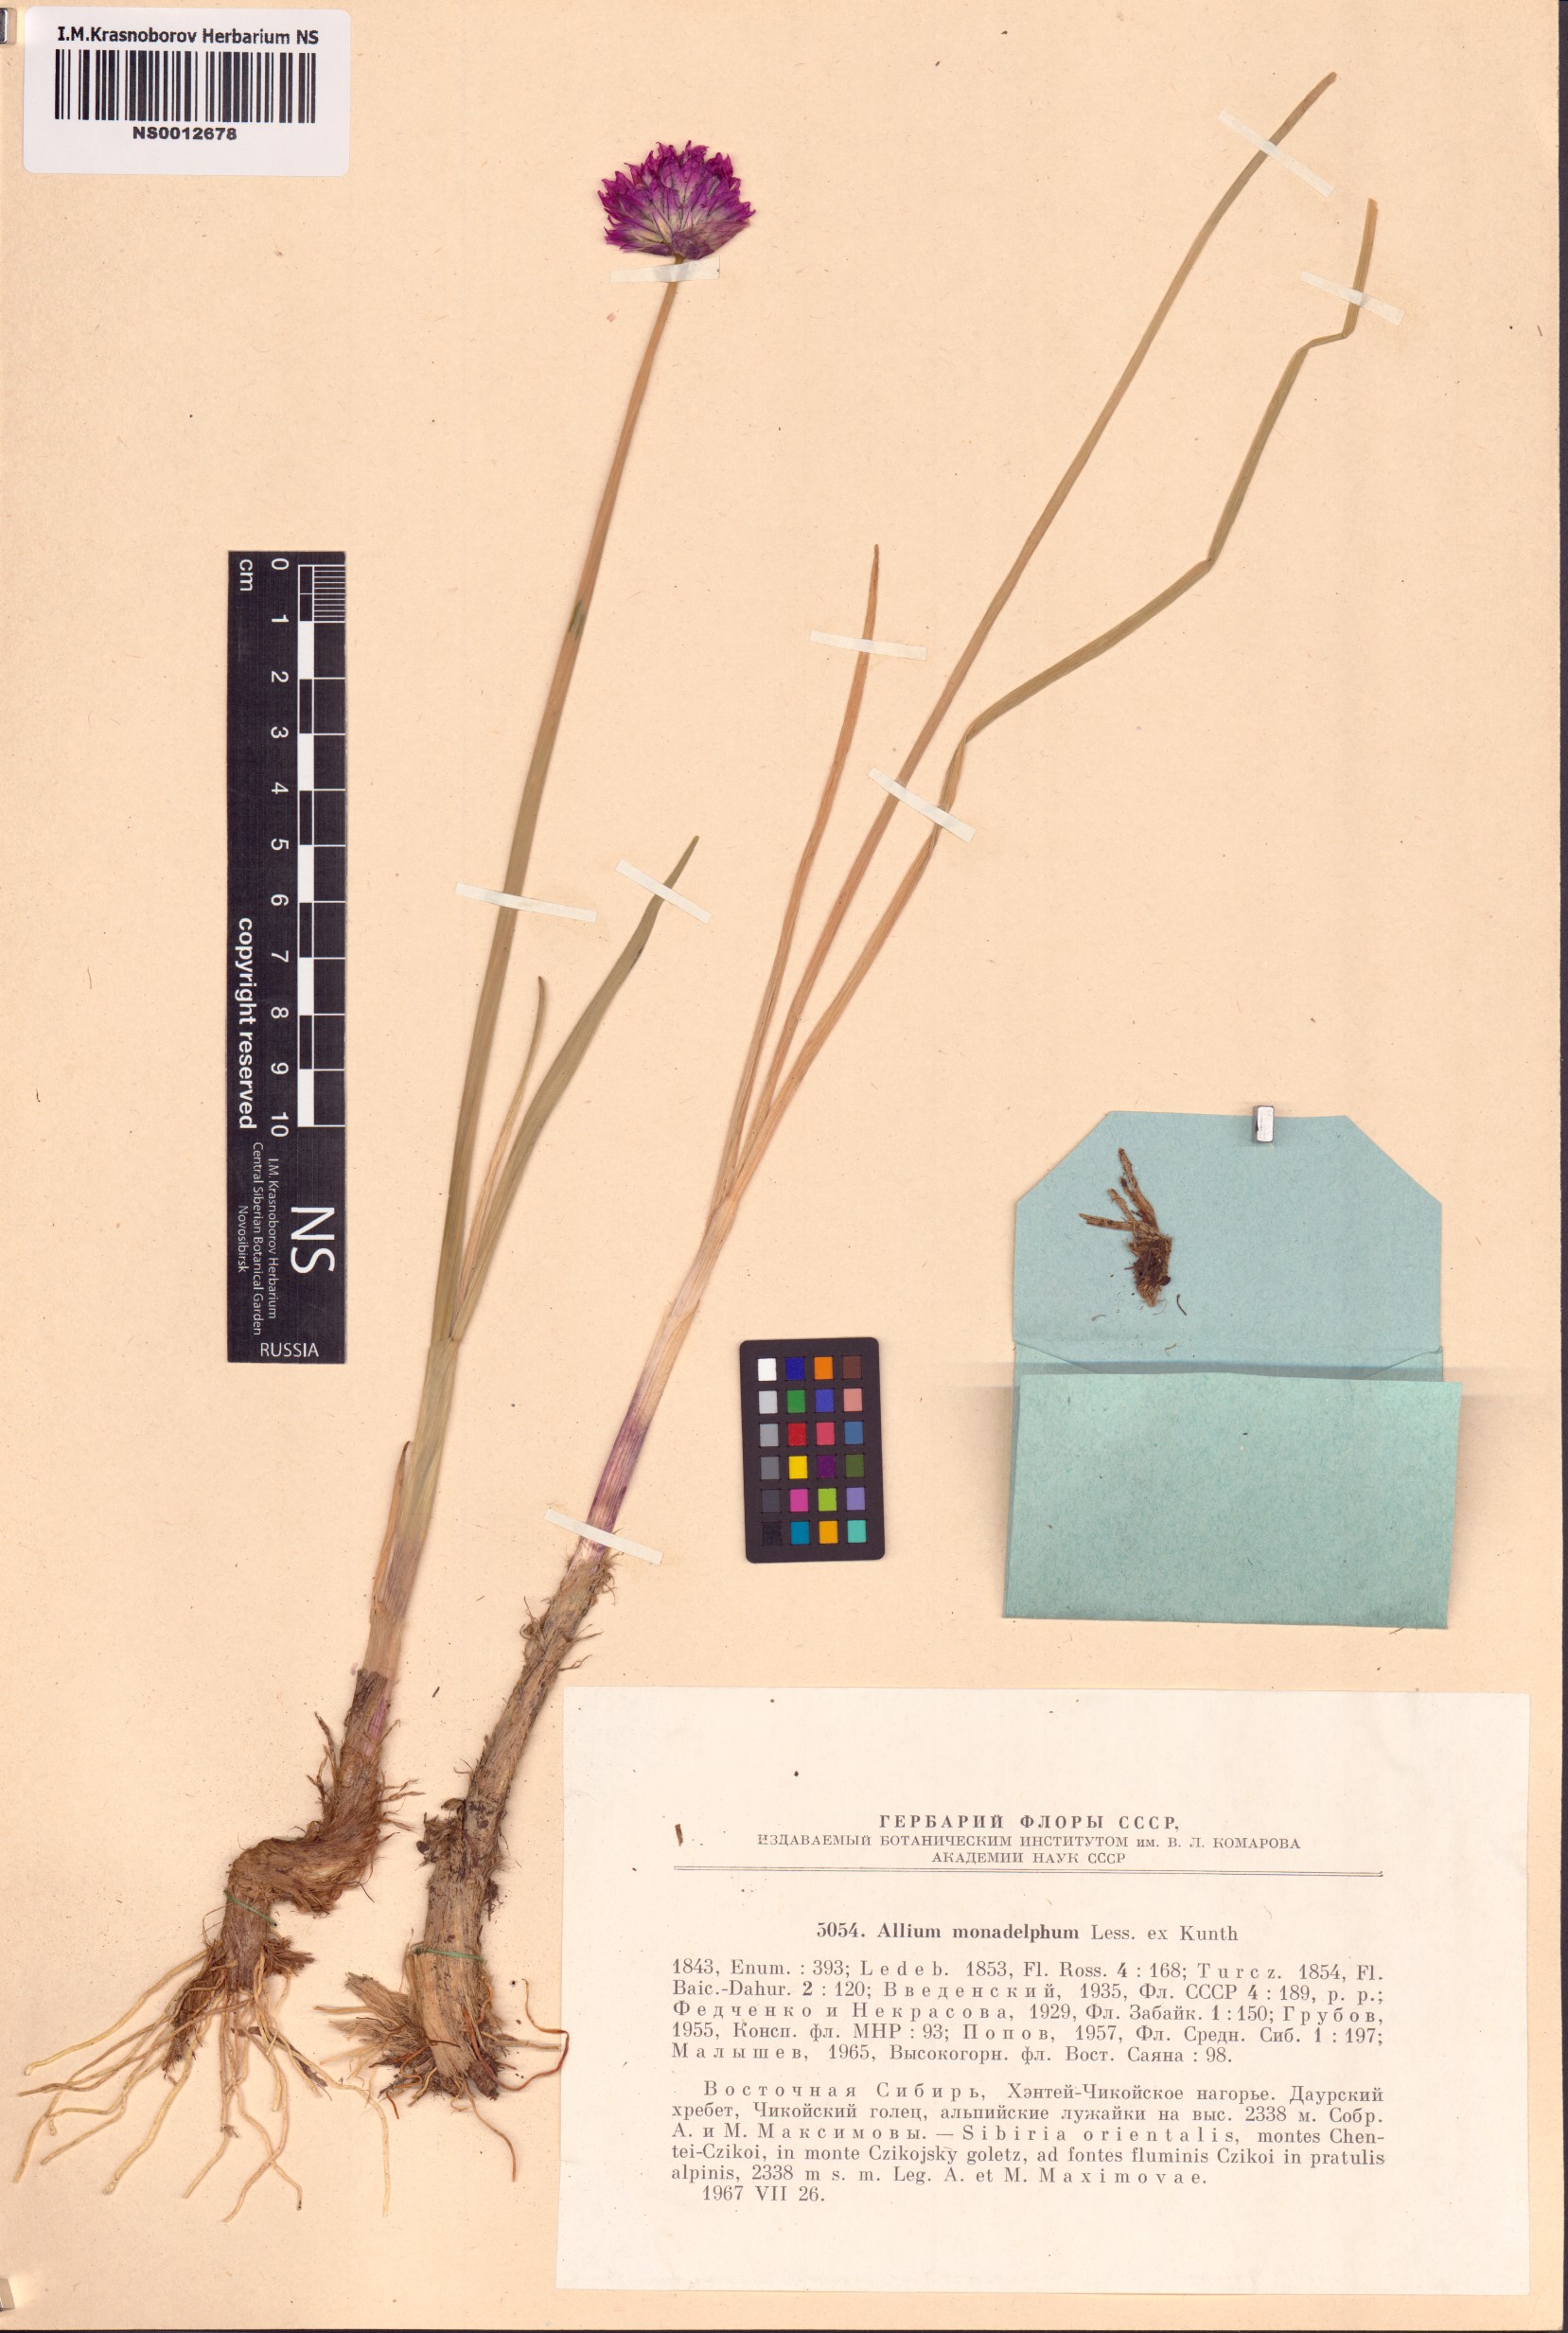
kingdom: Plantae
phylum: Tracheophyta
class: Liliopsida
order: Asparagales
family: Amaryllidaceae
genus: Allium
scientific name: Allium atrosanguineum
